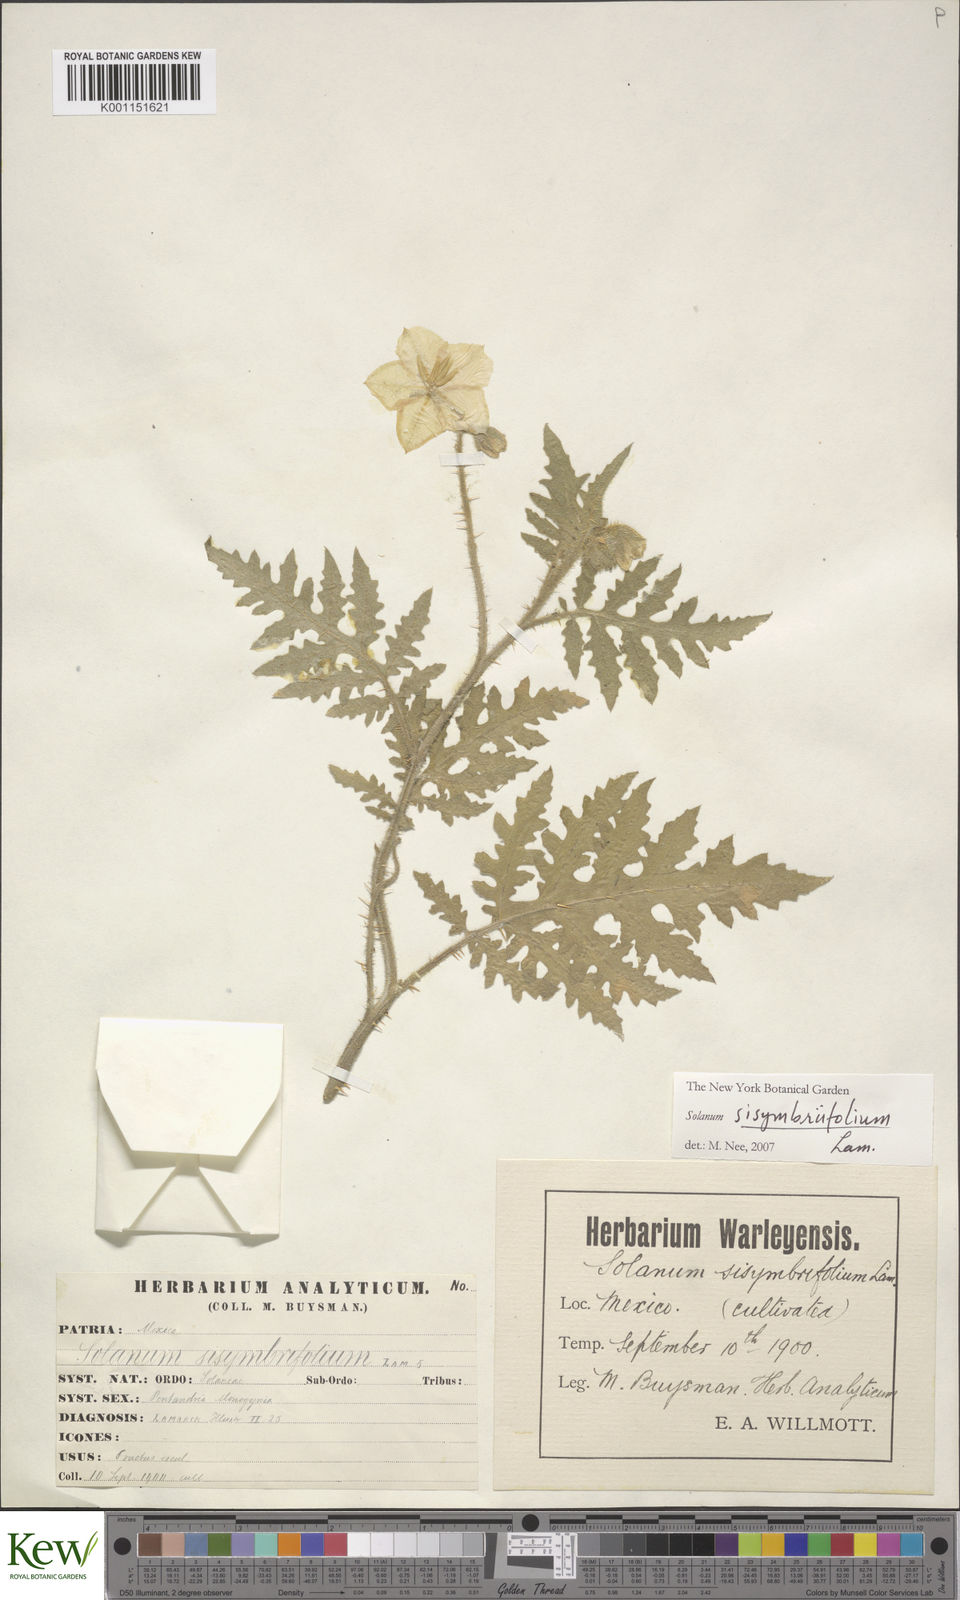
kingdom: Plantae
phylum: Tracheophyta
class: Magnoliopsida
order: Solanales
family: Solanaceae
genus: Solanum
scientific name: Solanum sisymbriifolium
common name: Red buffalo-bur
